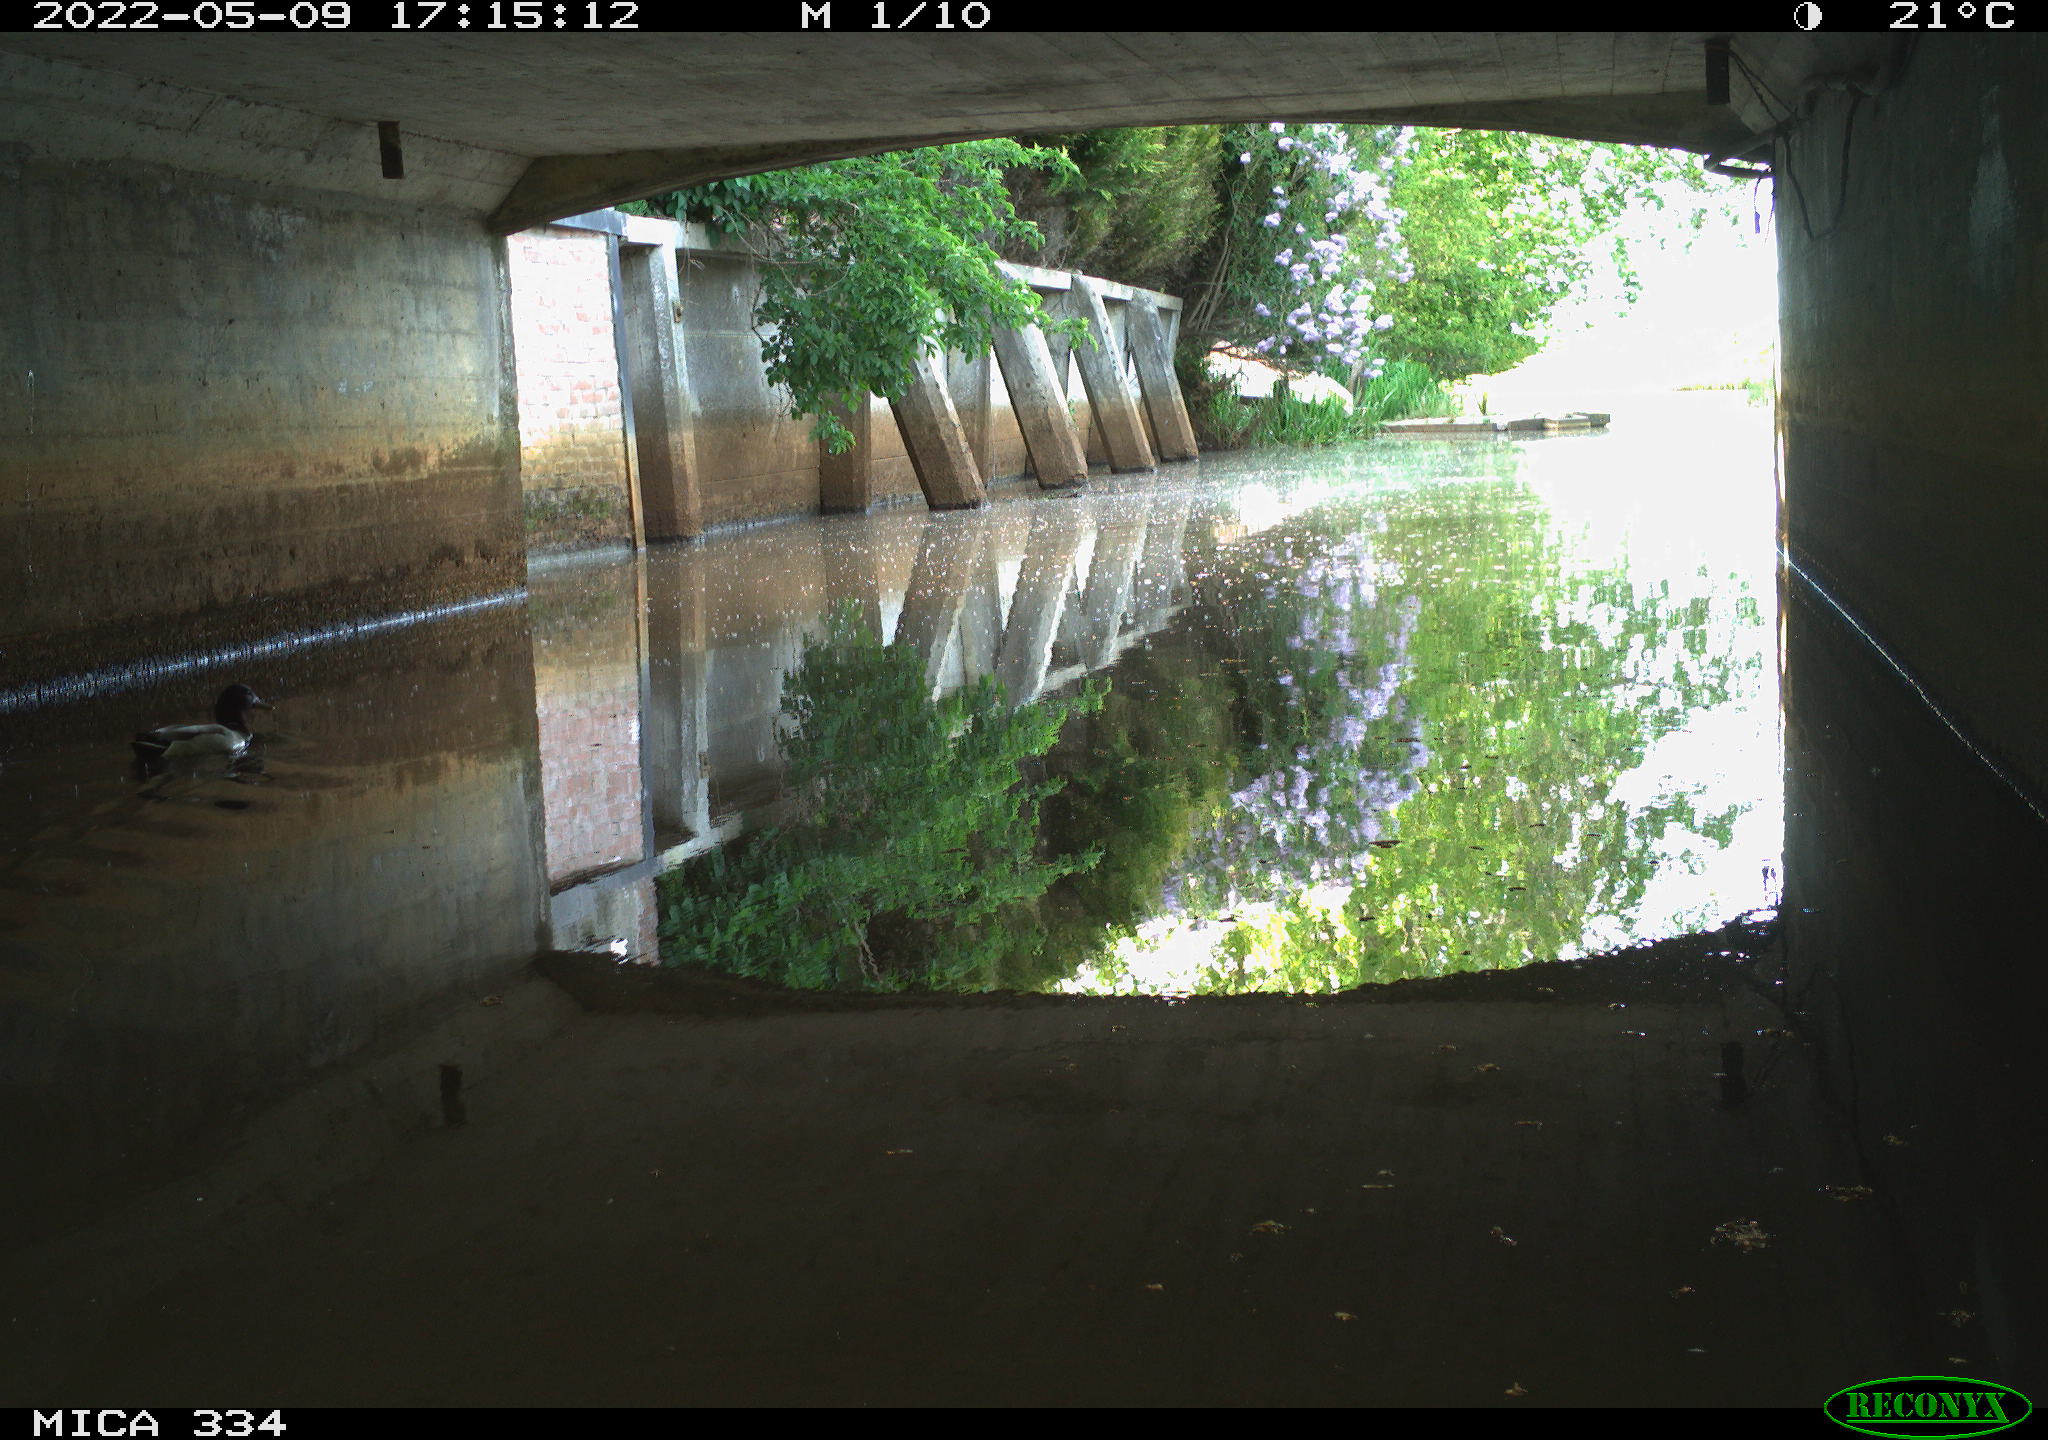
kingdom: Animalia
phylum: Chordata
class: Aves
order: Anseriformes
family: Anatidae
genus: Anas
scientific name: Anas platyrhynchos
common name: Mallard
